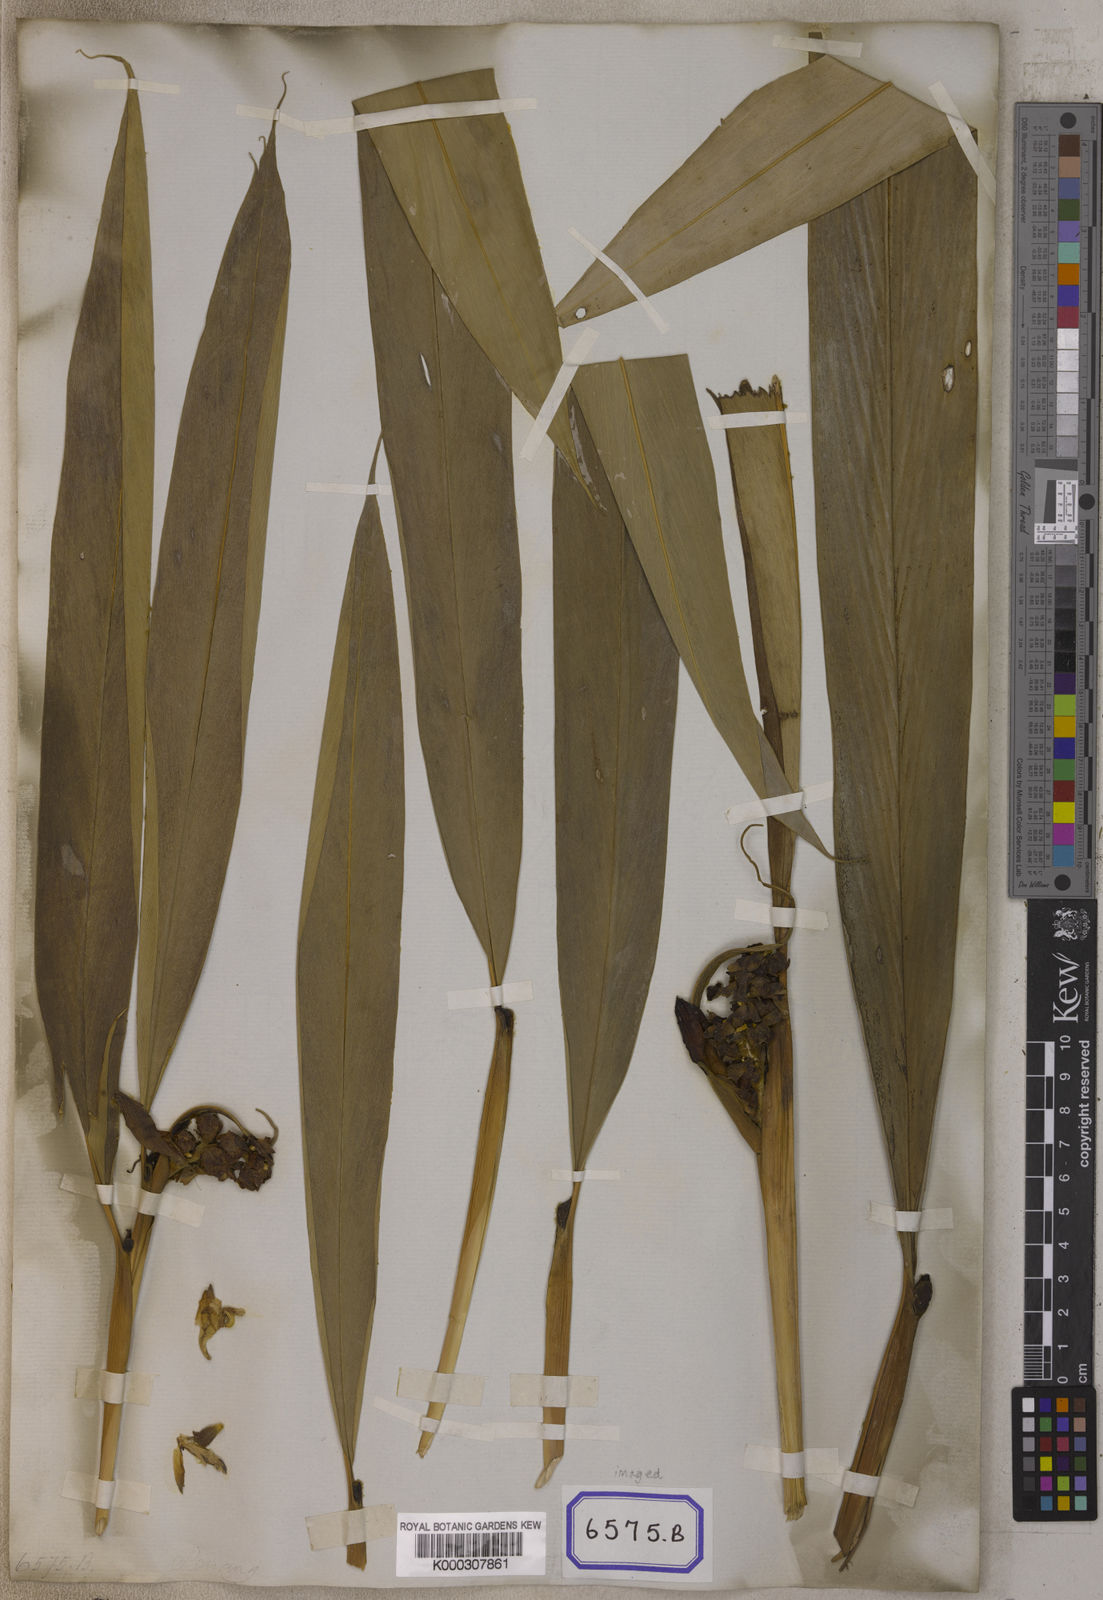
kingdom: Plantae
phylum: Tracheophyta
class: Liliopsida
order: Zingiberales
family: Zingiberaceae
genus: Alpinia
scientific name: Alpinia
